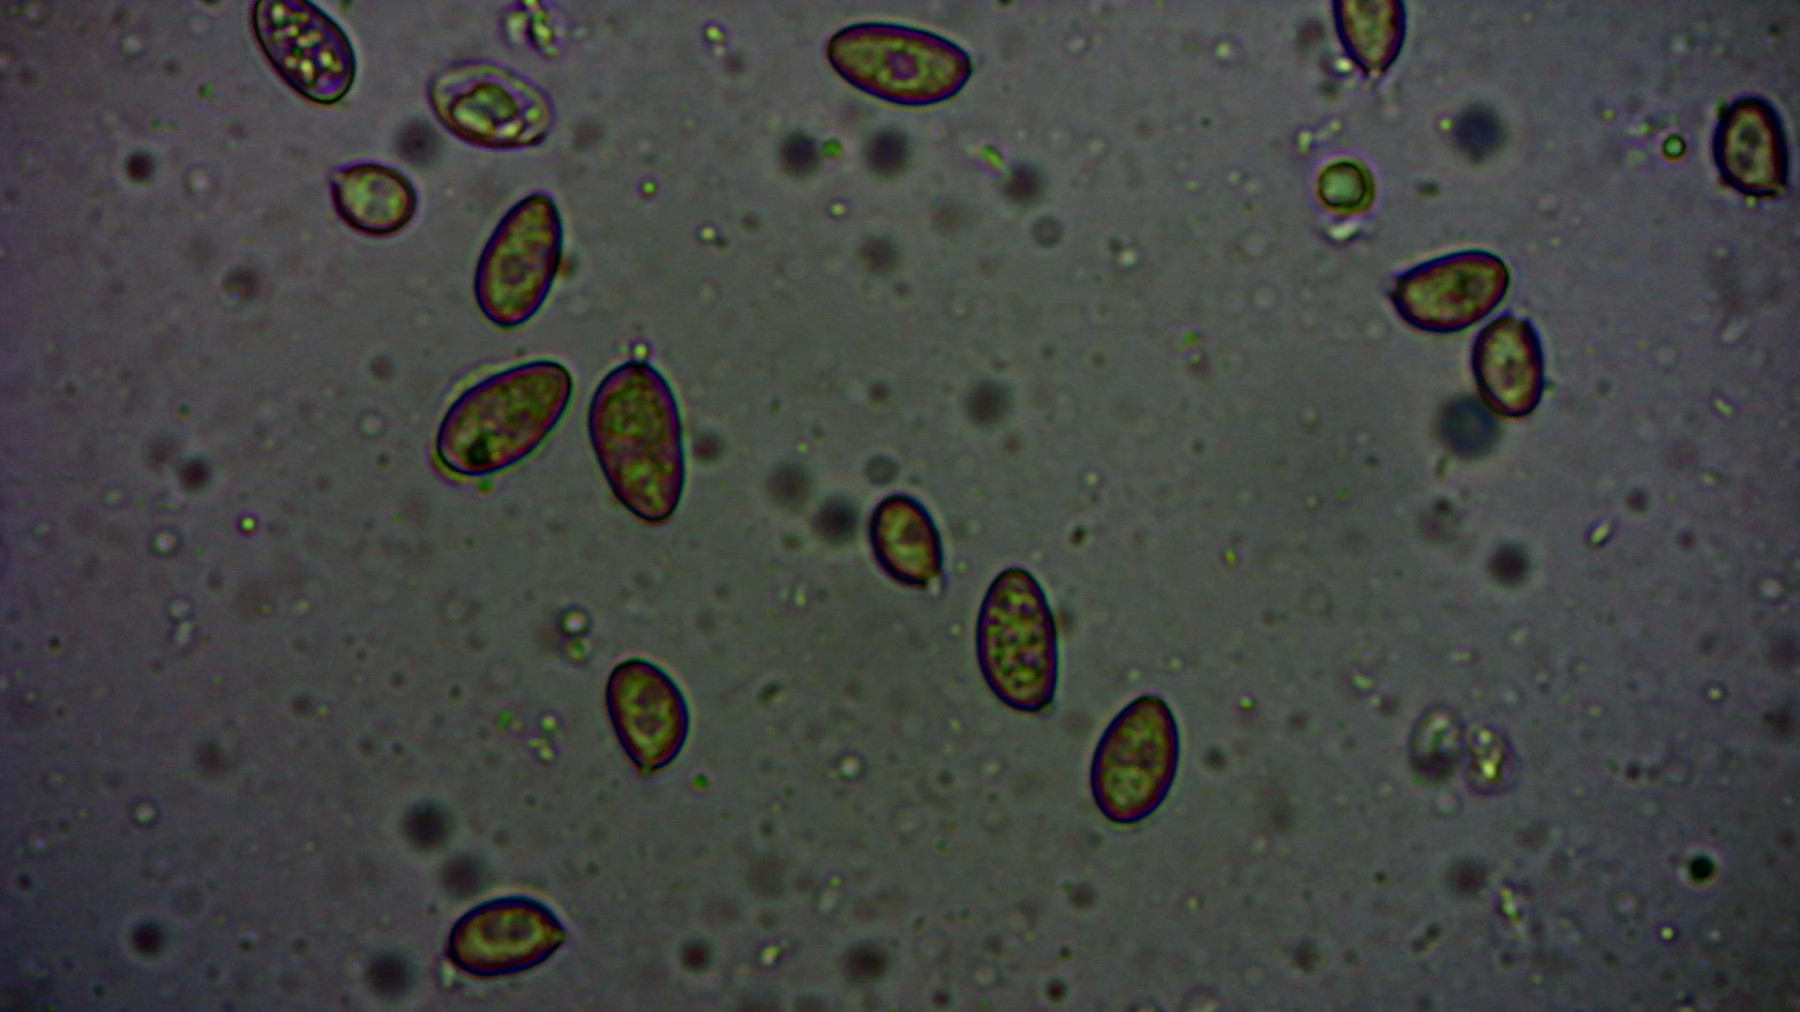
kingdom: Fungi
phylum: Basidiomycota
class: Agaricomycetes
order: Agaricales
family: Strophariaceae
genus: Hypholoma
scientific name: Hypholoma elongatum
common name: slank svovlhat
